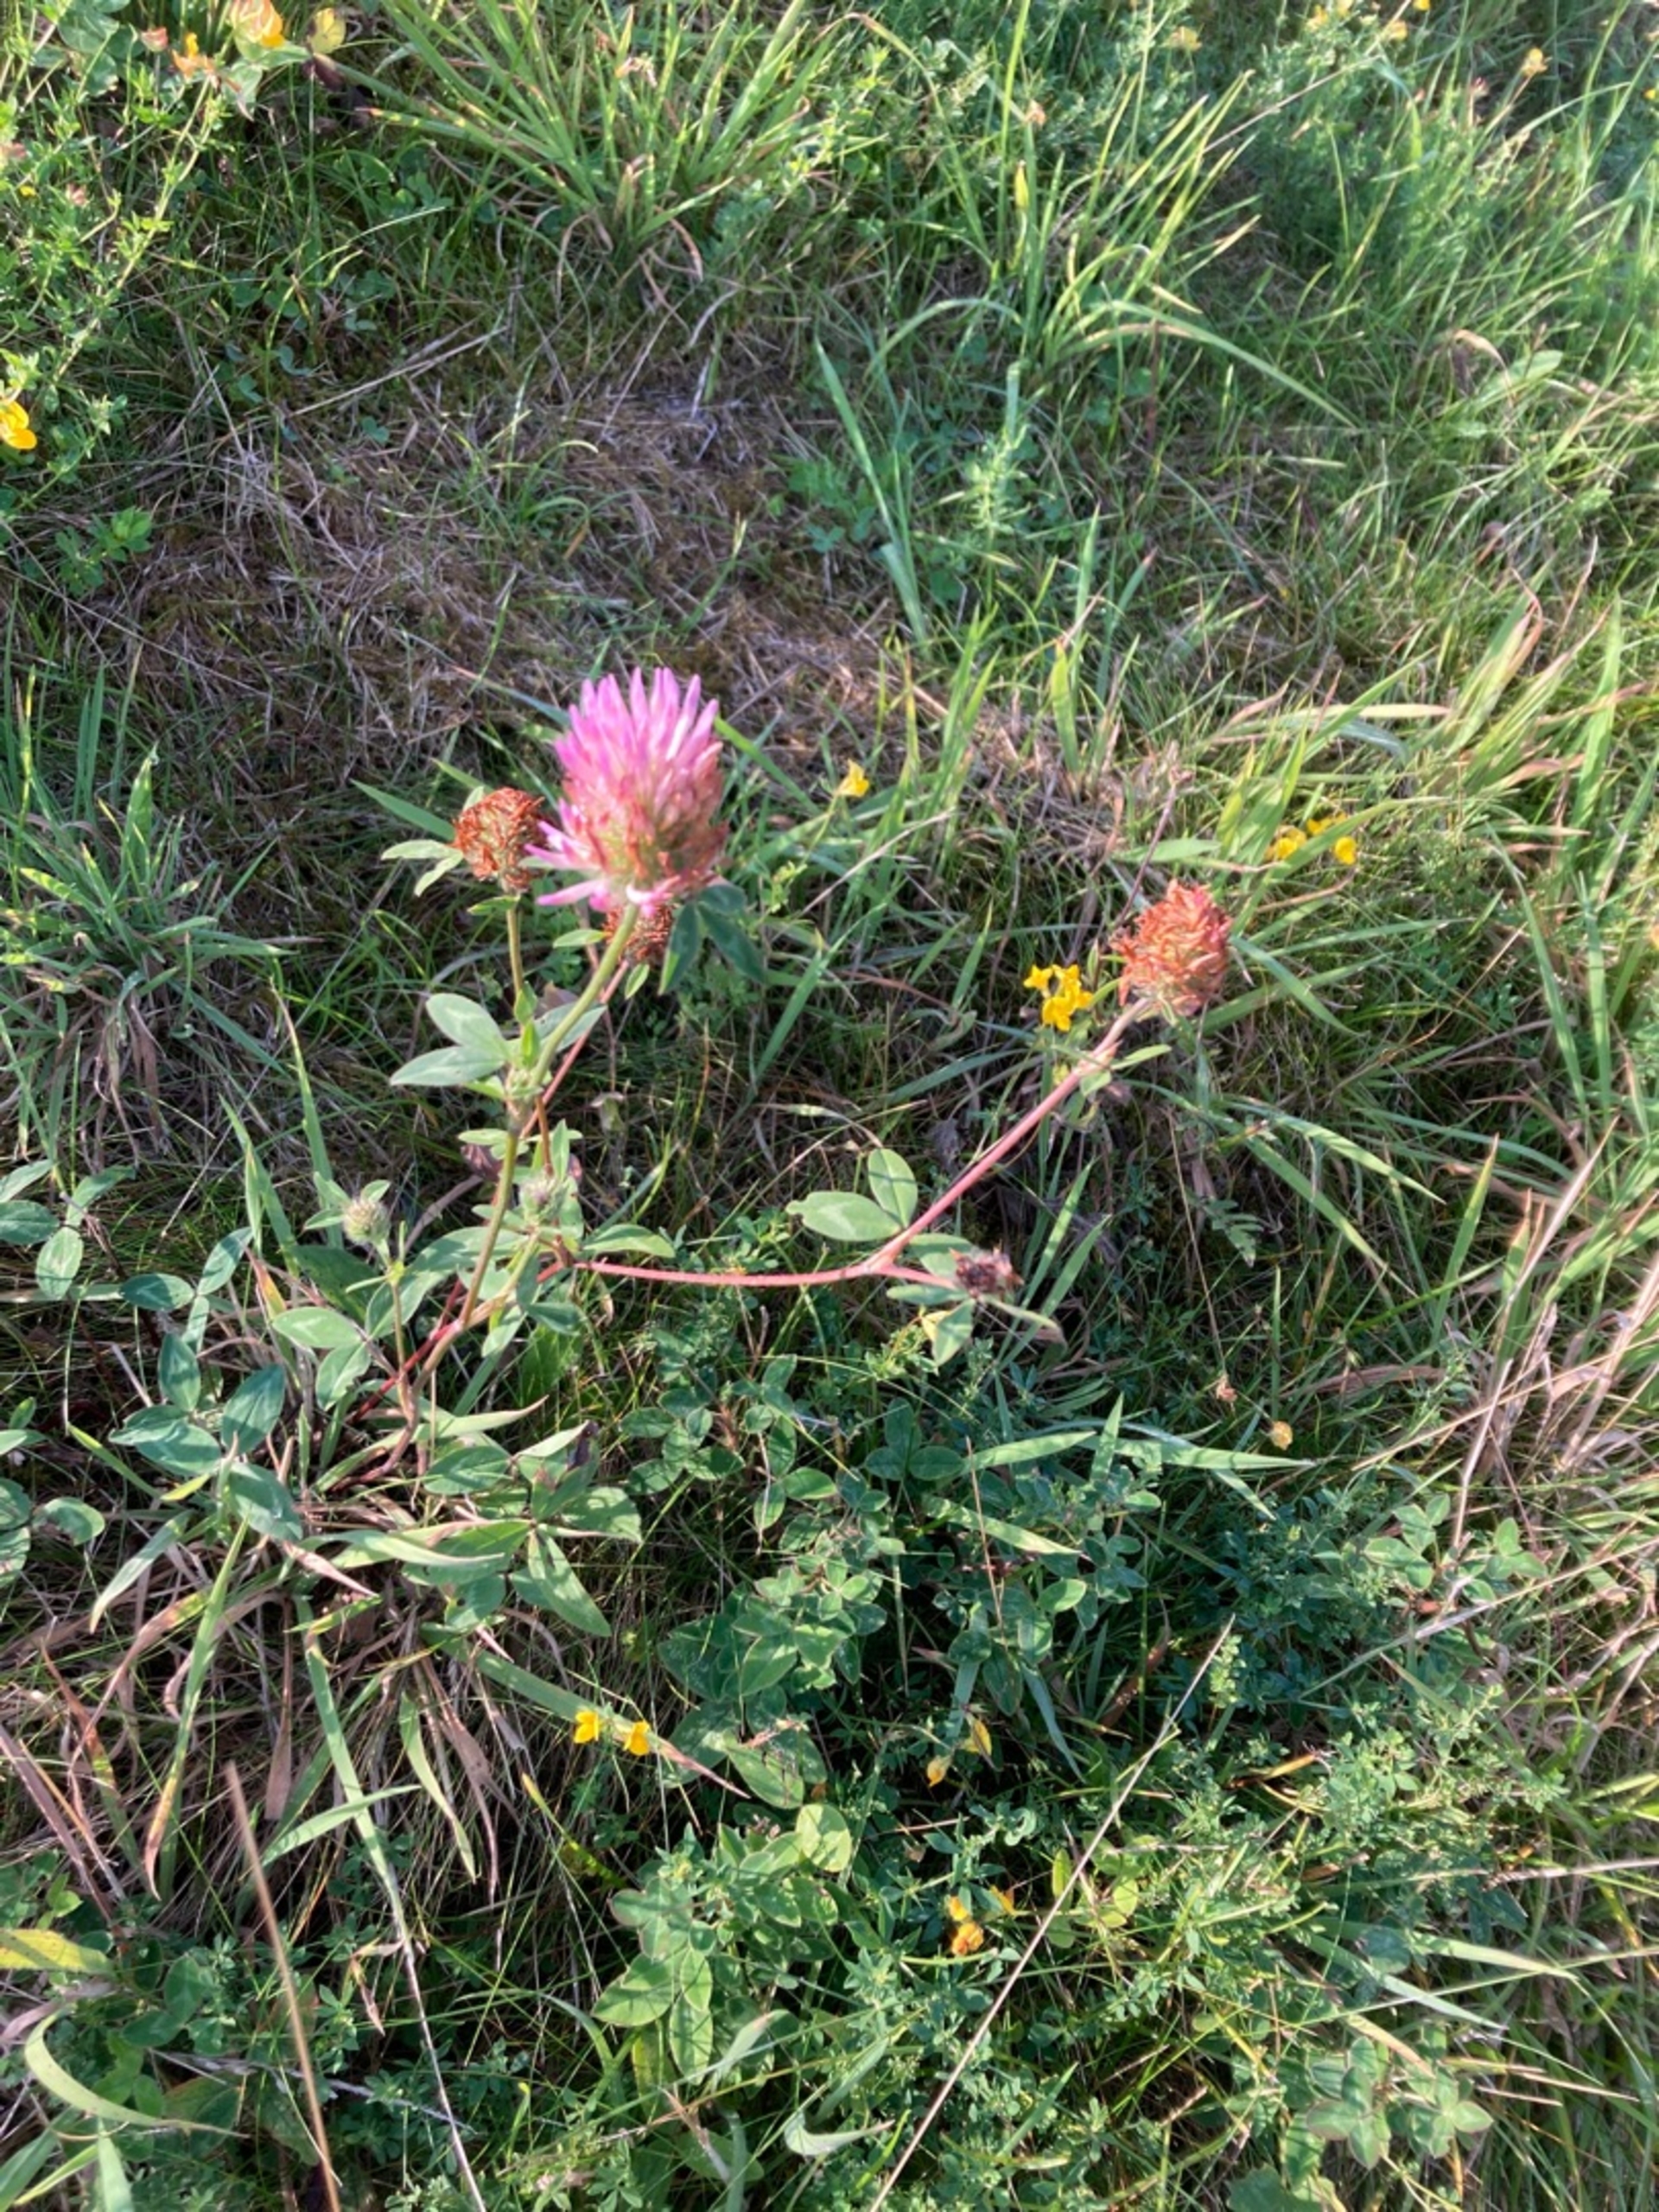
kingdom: Plantae
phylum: Tracheophyta
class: Magnoliopsida
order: Fabales
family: Fabaceae
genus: Trifolium
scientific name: Trifolium pratense
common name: Rød-kløver
